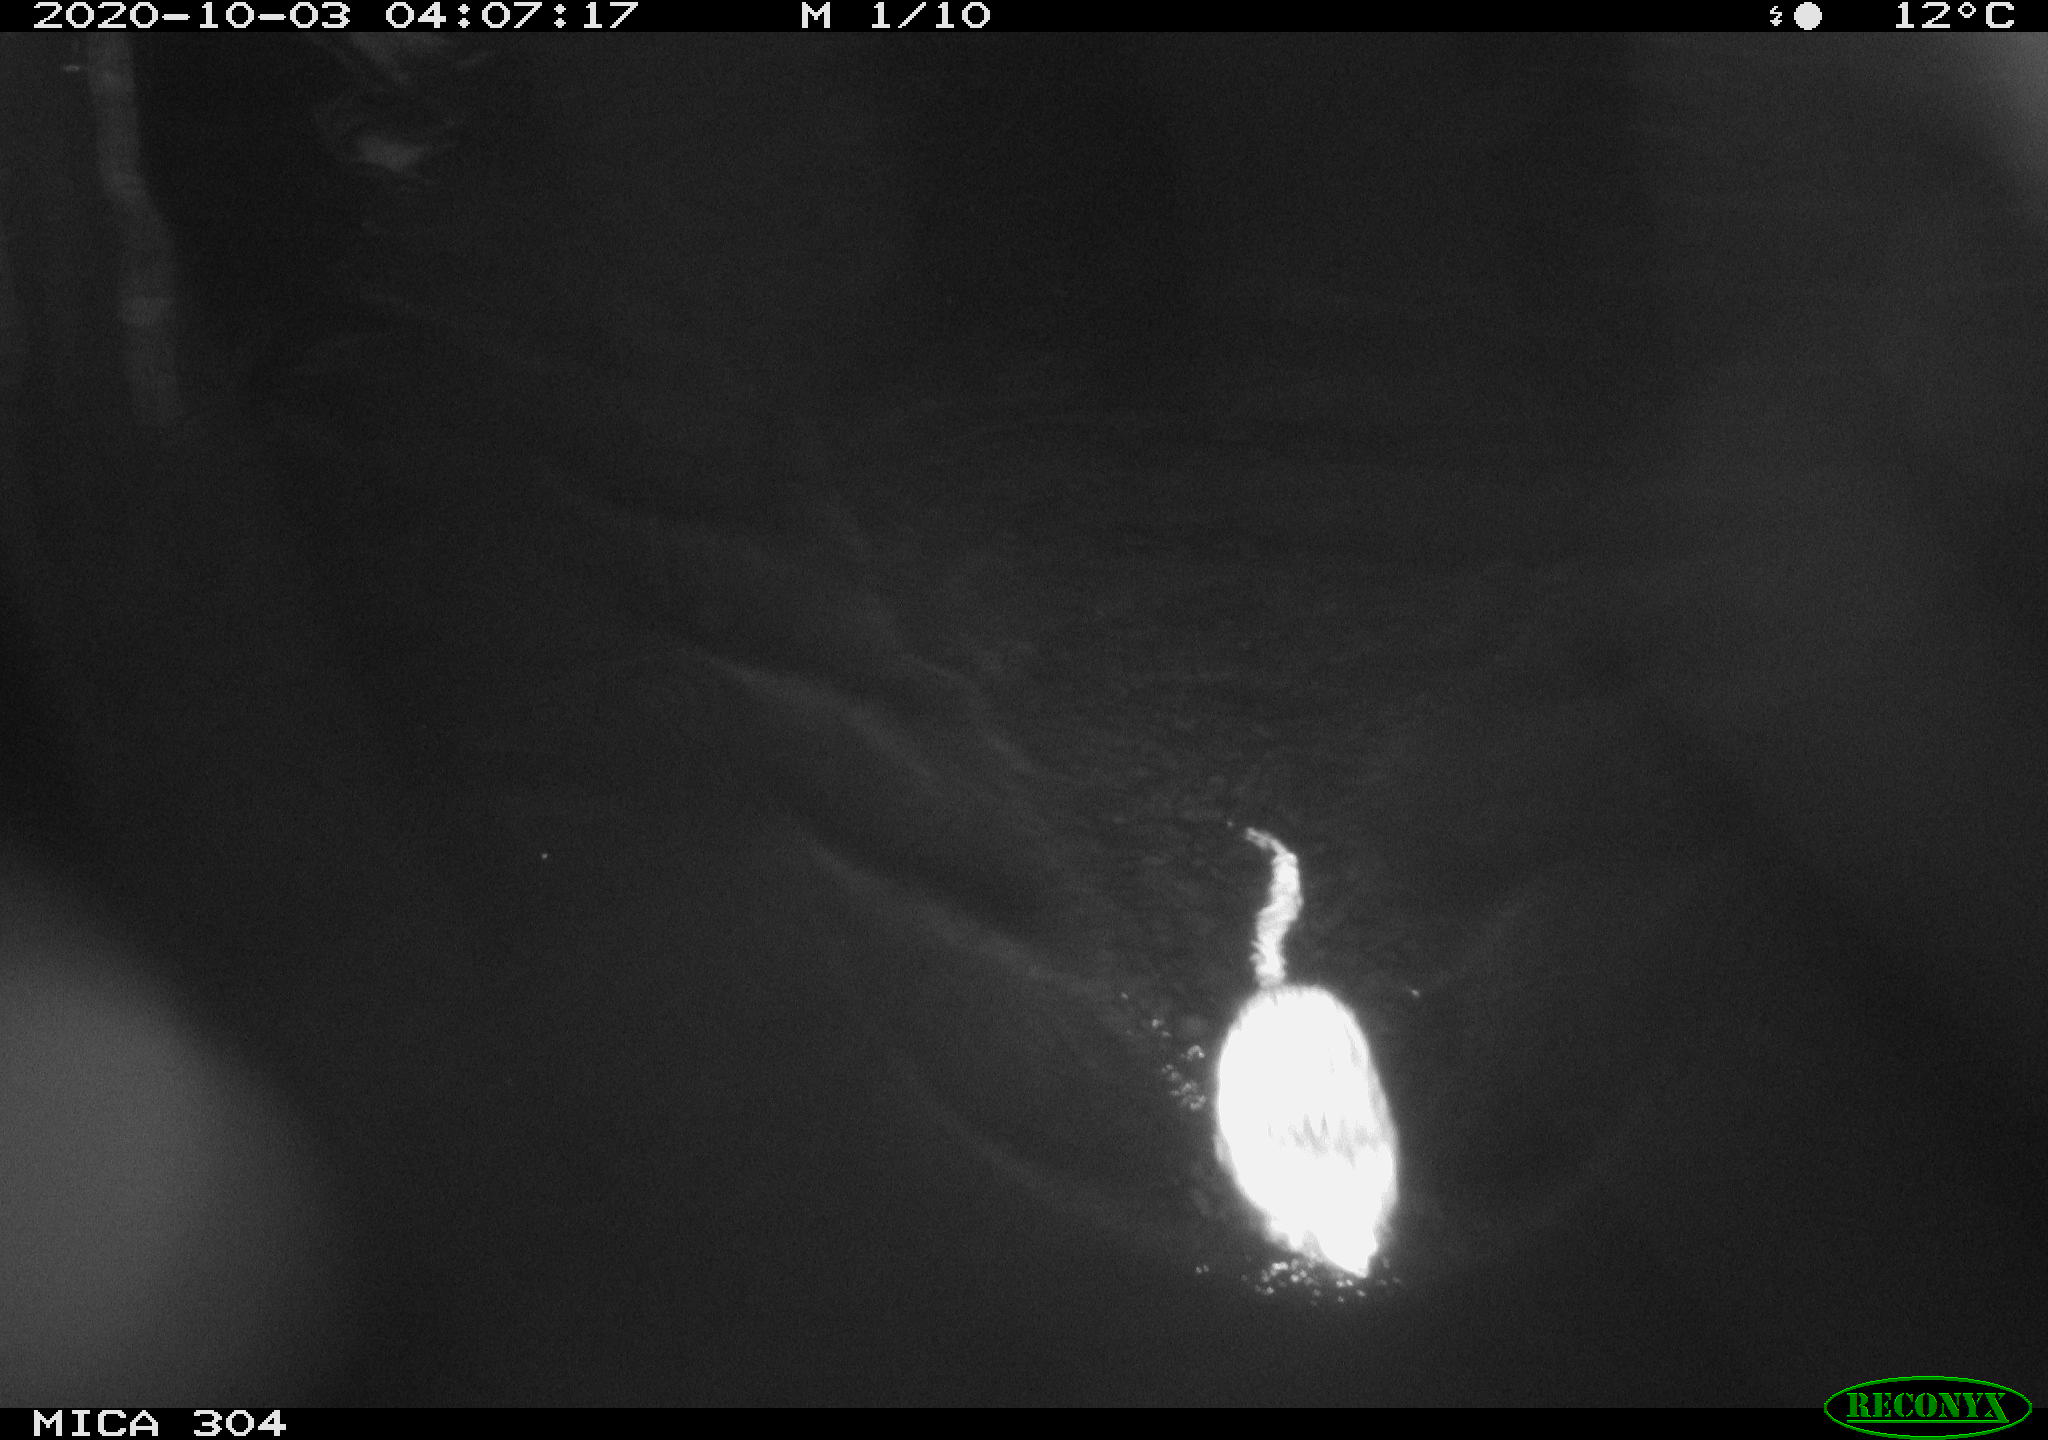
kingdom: Animalia
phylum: Chordata
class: Mammalia
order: Rodentia
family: Cricetidae
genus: Ondatra
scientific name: Ondatra zibethicus
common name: Muskrat
